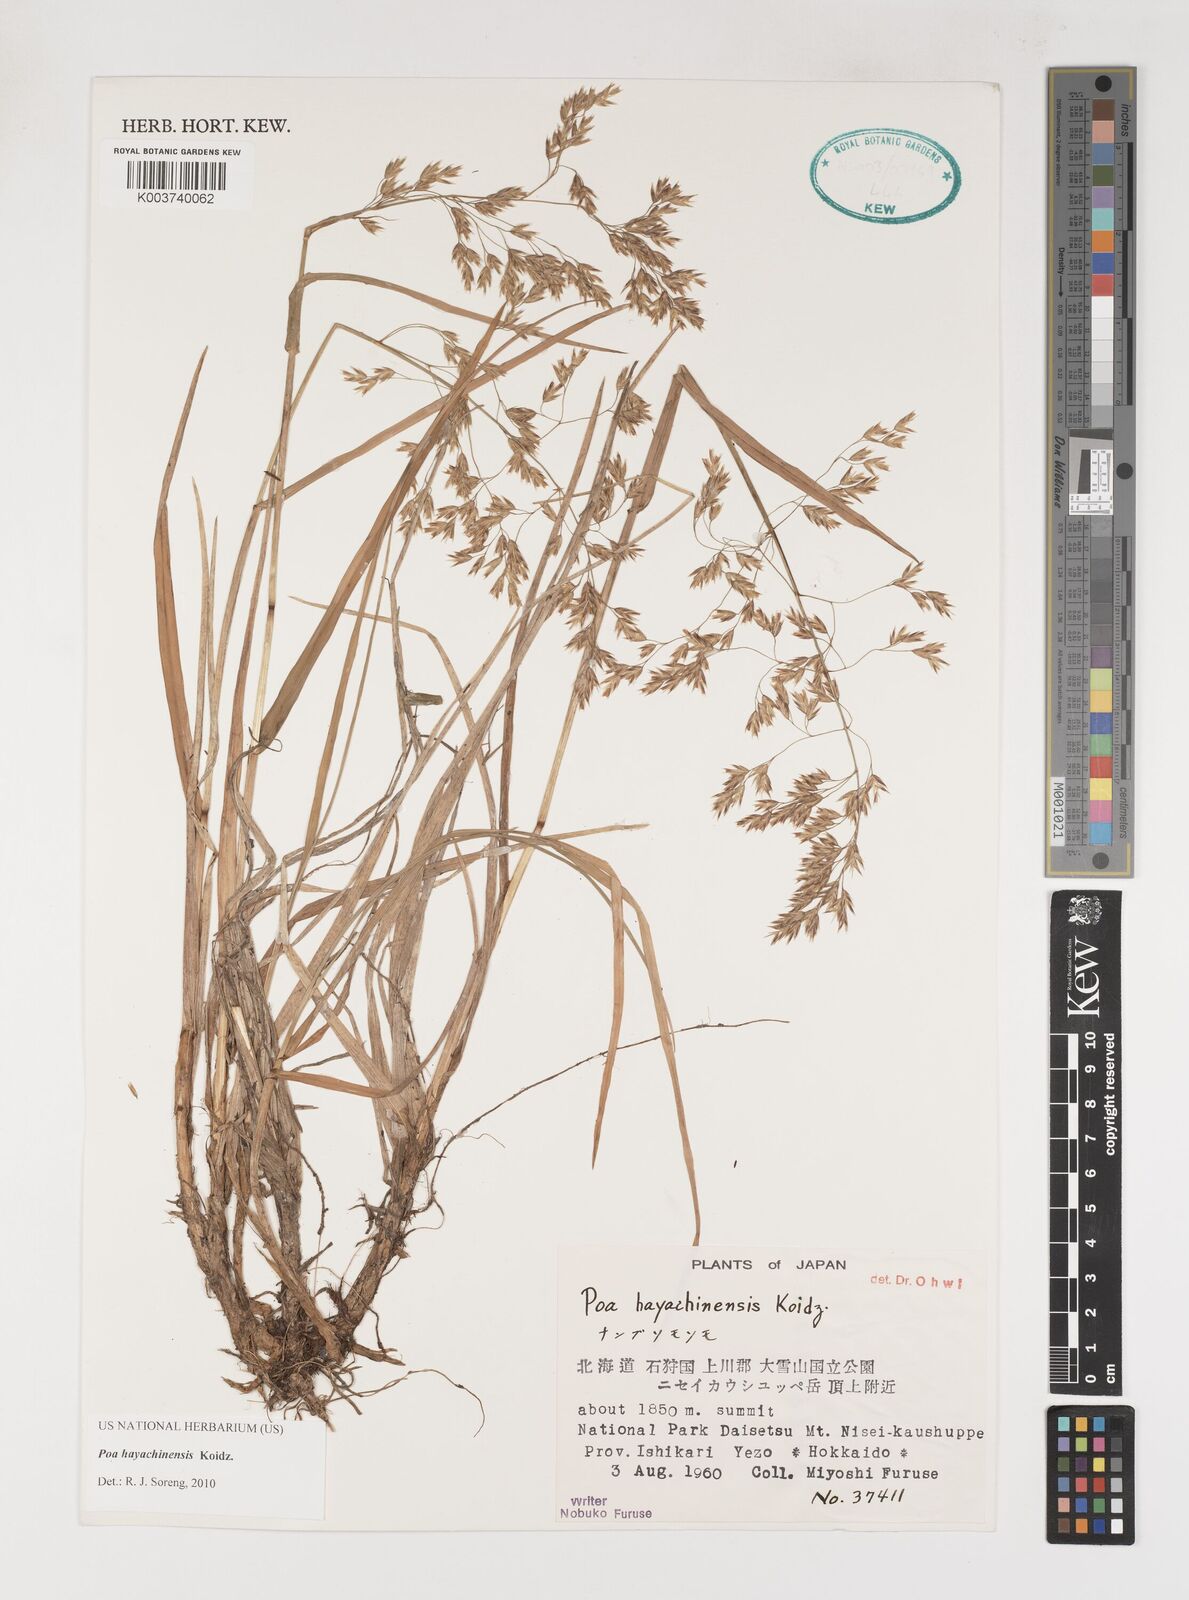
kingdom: Plantae
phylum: Tracheophyta
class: Liliopsida
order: Poales
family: Poaceae
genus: Dupontiopsis
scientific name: Dupontiopsis hayachinensis
